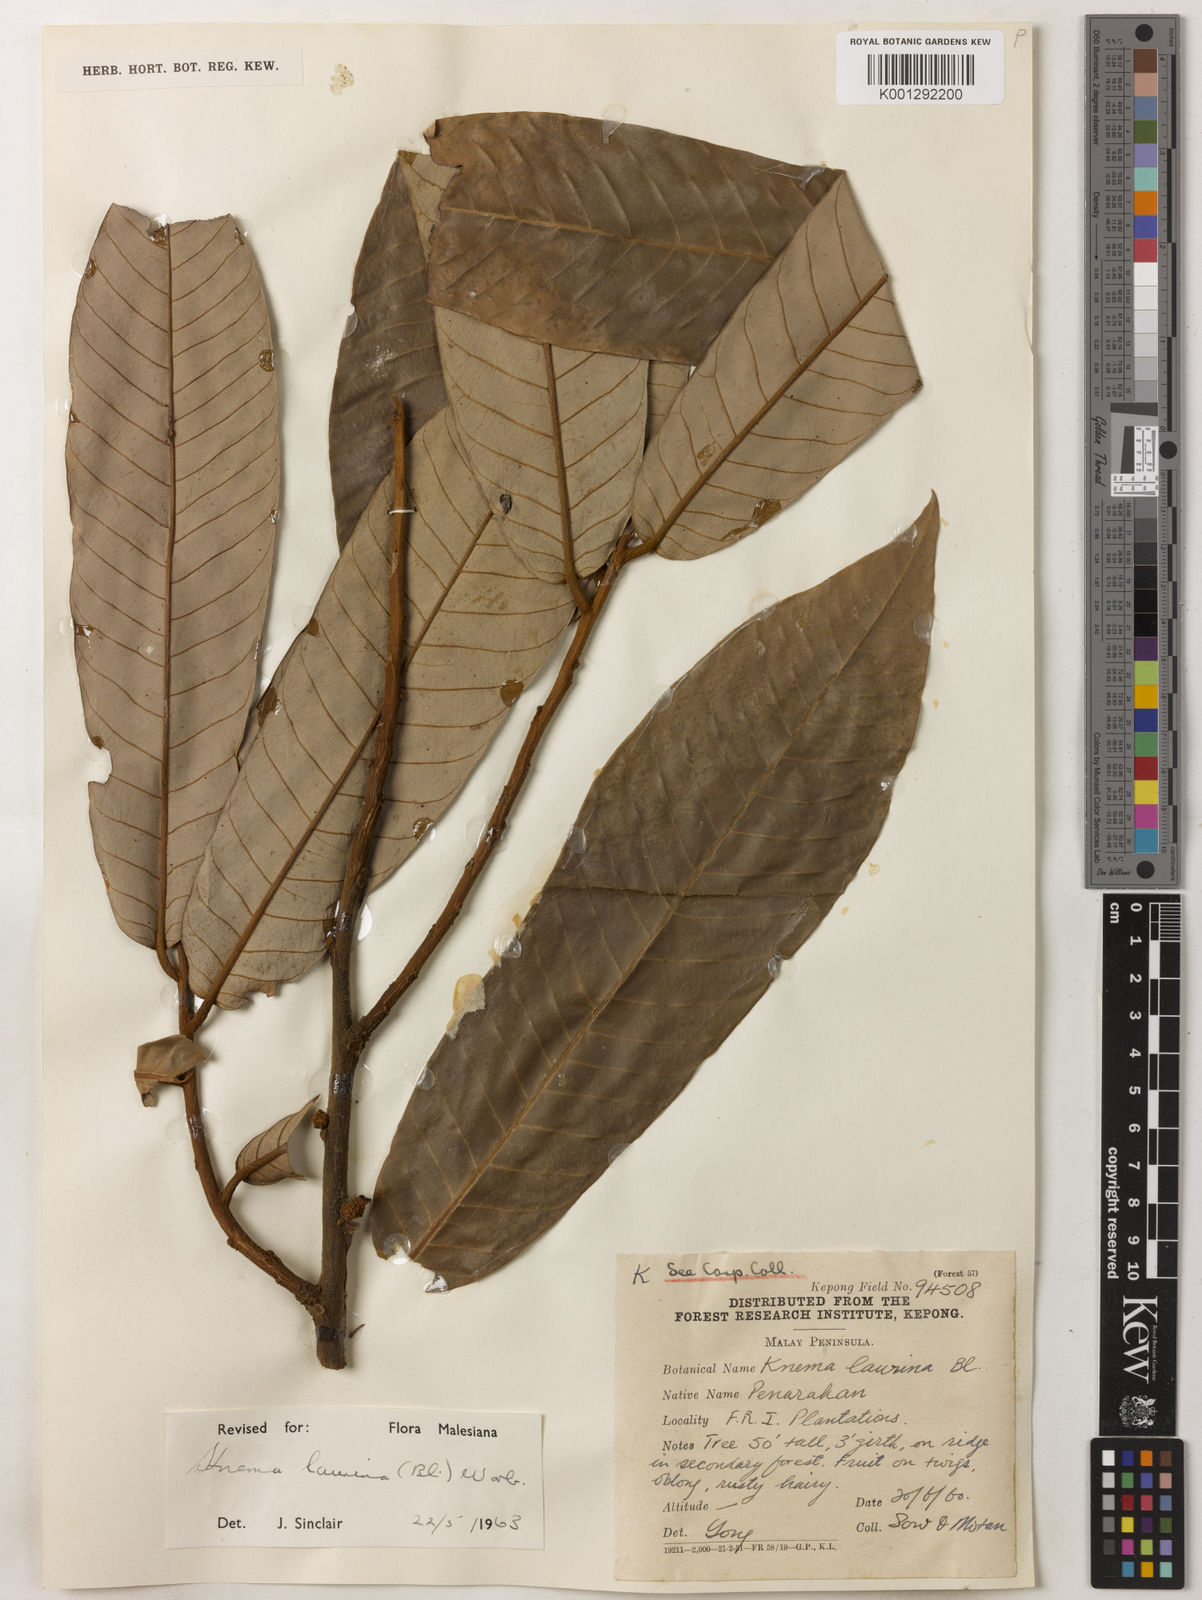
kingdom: Plantae
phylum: Tracheophyta
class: Magnoliopsida
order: Magnoliales
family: Myristicaceae
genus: Knema
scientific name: Knema laurina
